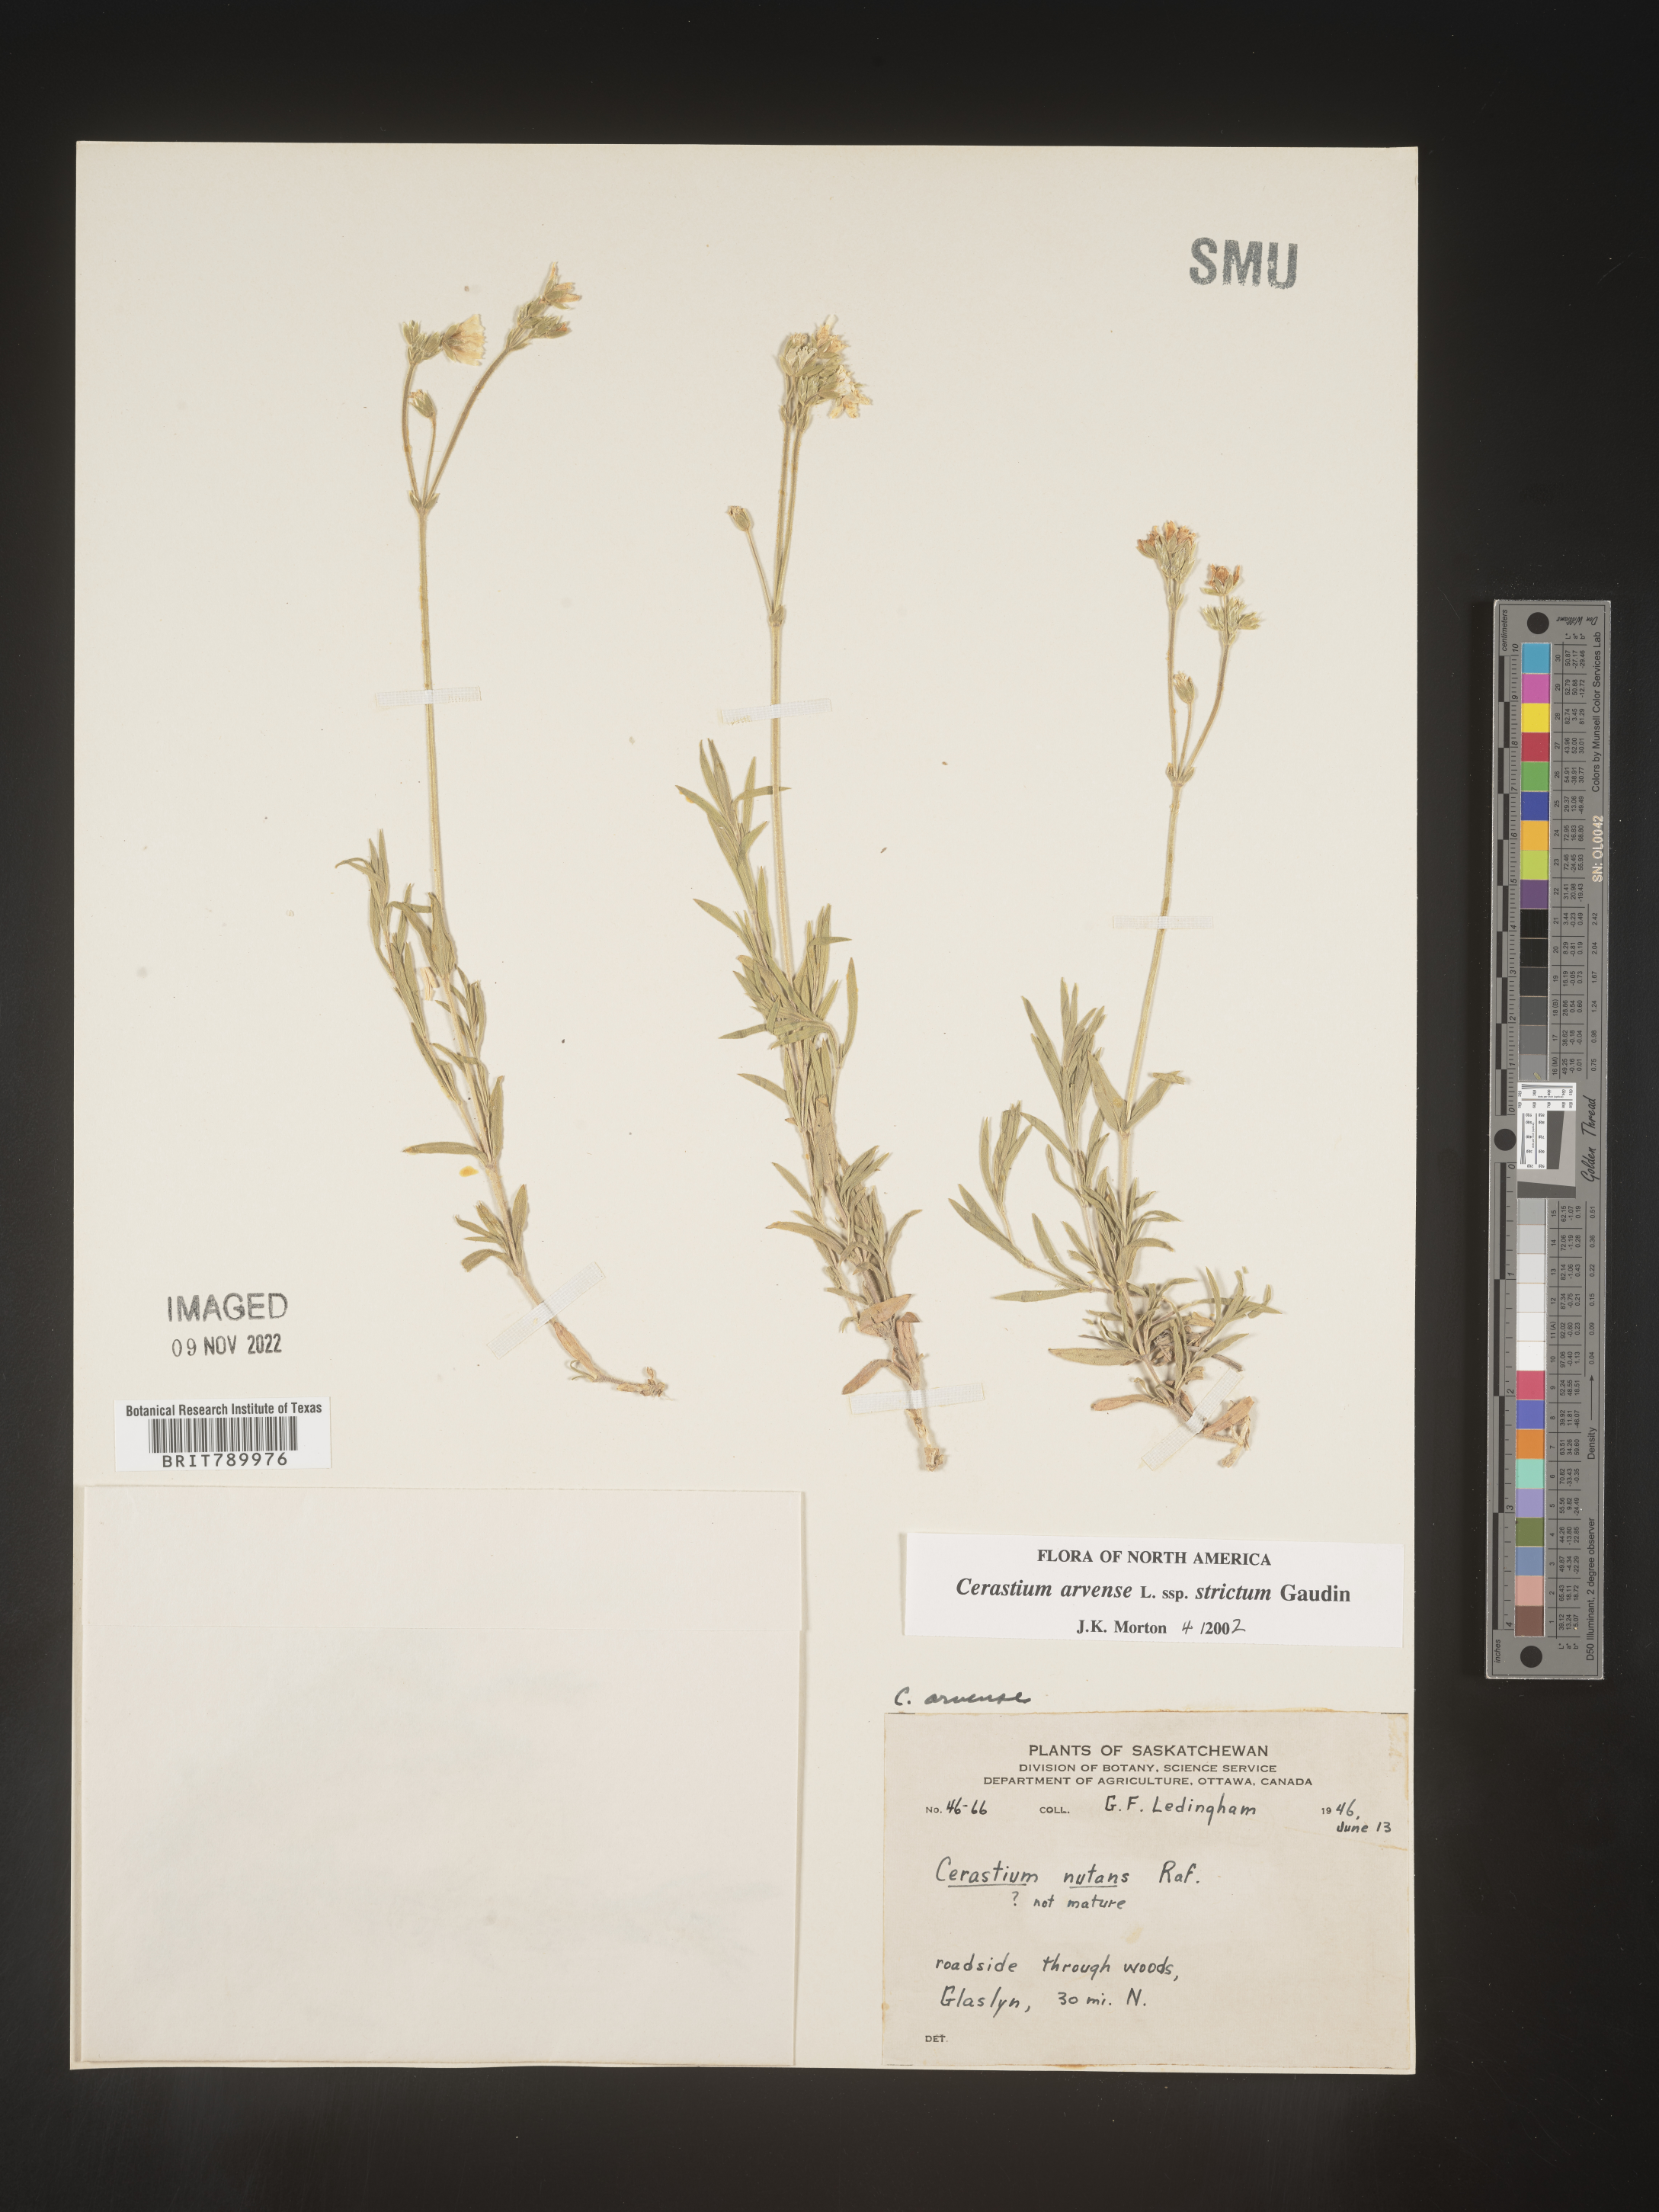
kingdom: Plantae
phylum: Tracheophyta
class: Magnoliopsida
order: Caryophyllales
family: Caryophyllaceae
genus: Cerastium
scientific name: Cerastium arvense
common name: Field mouse-ear
